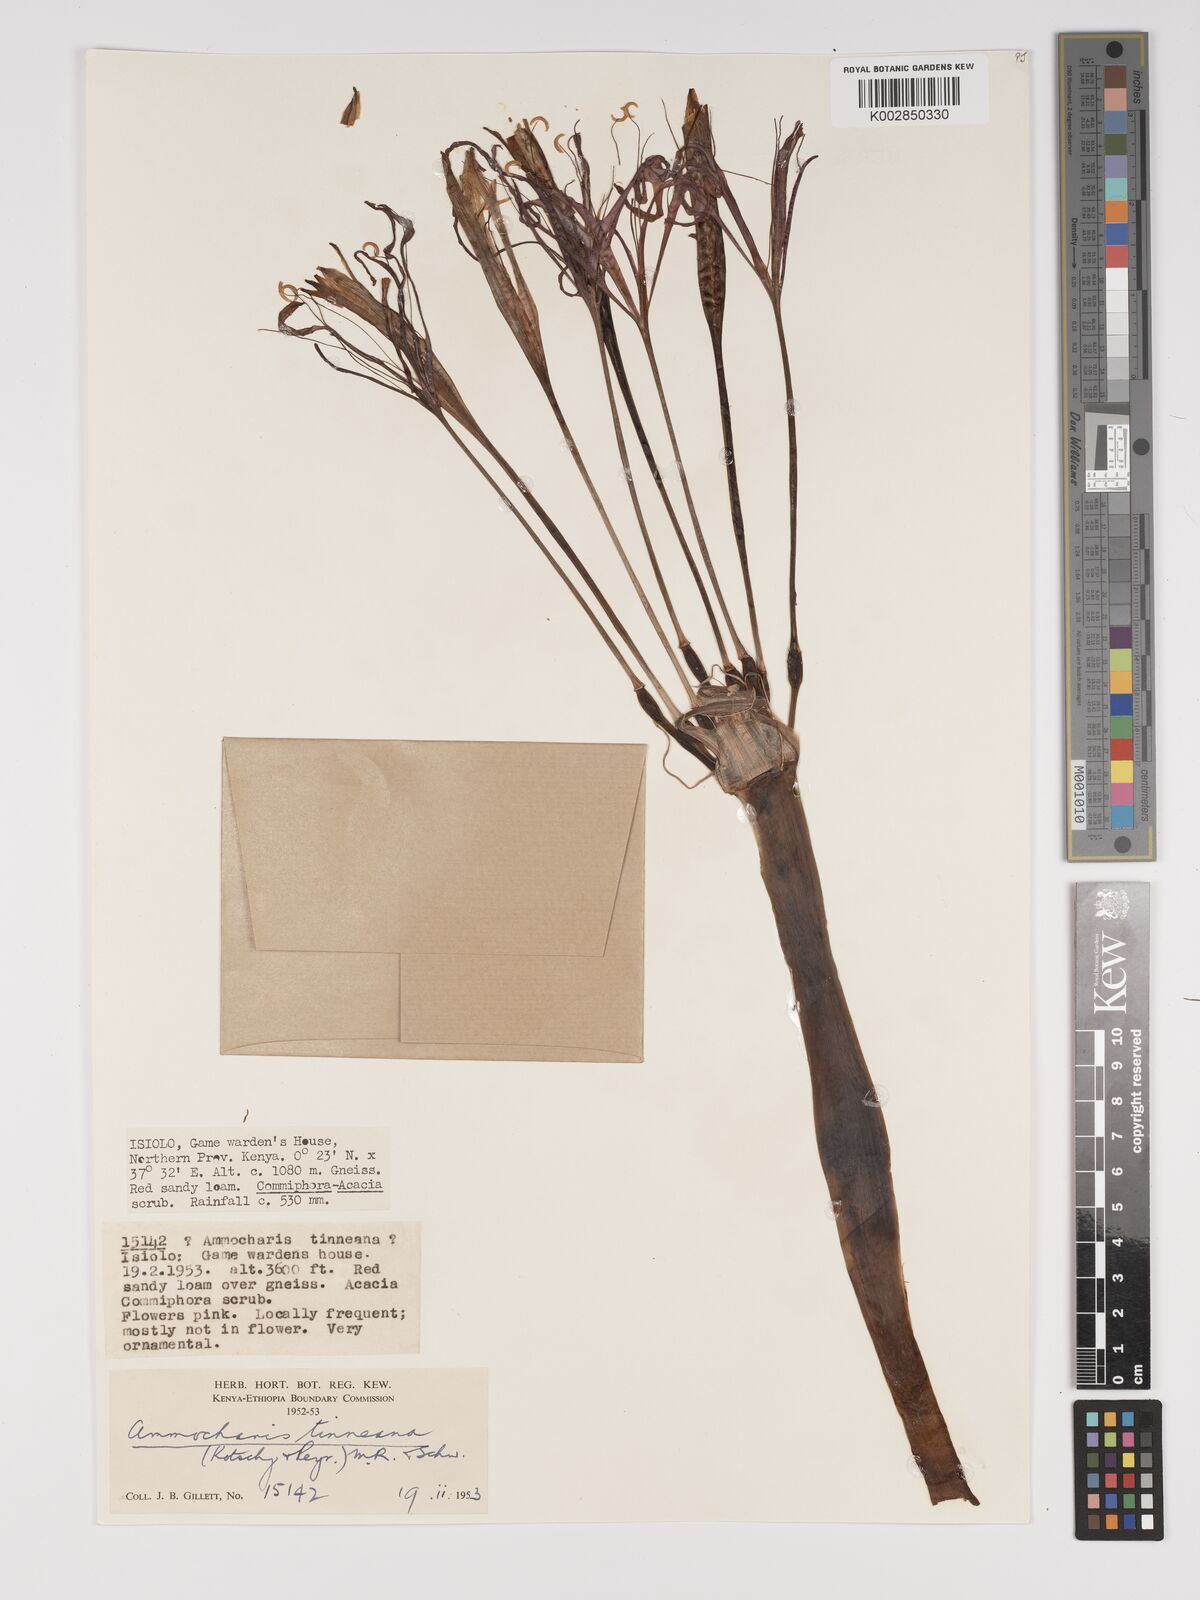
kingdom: Plantae
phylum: Tracheophyta
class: Liliopsida
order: Asparagales
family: Amaryllidaceae
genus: Ammocharis
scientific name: Ammocharis tinneana
